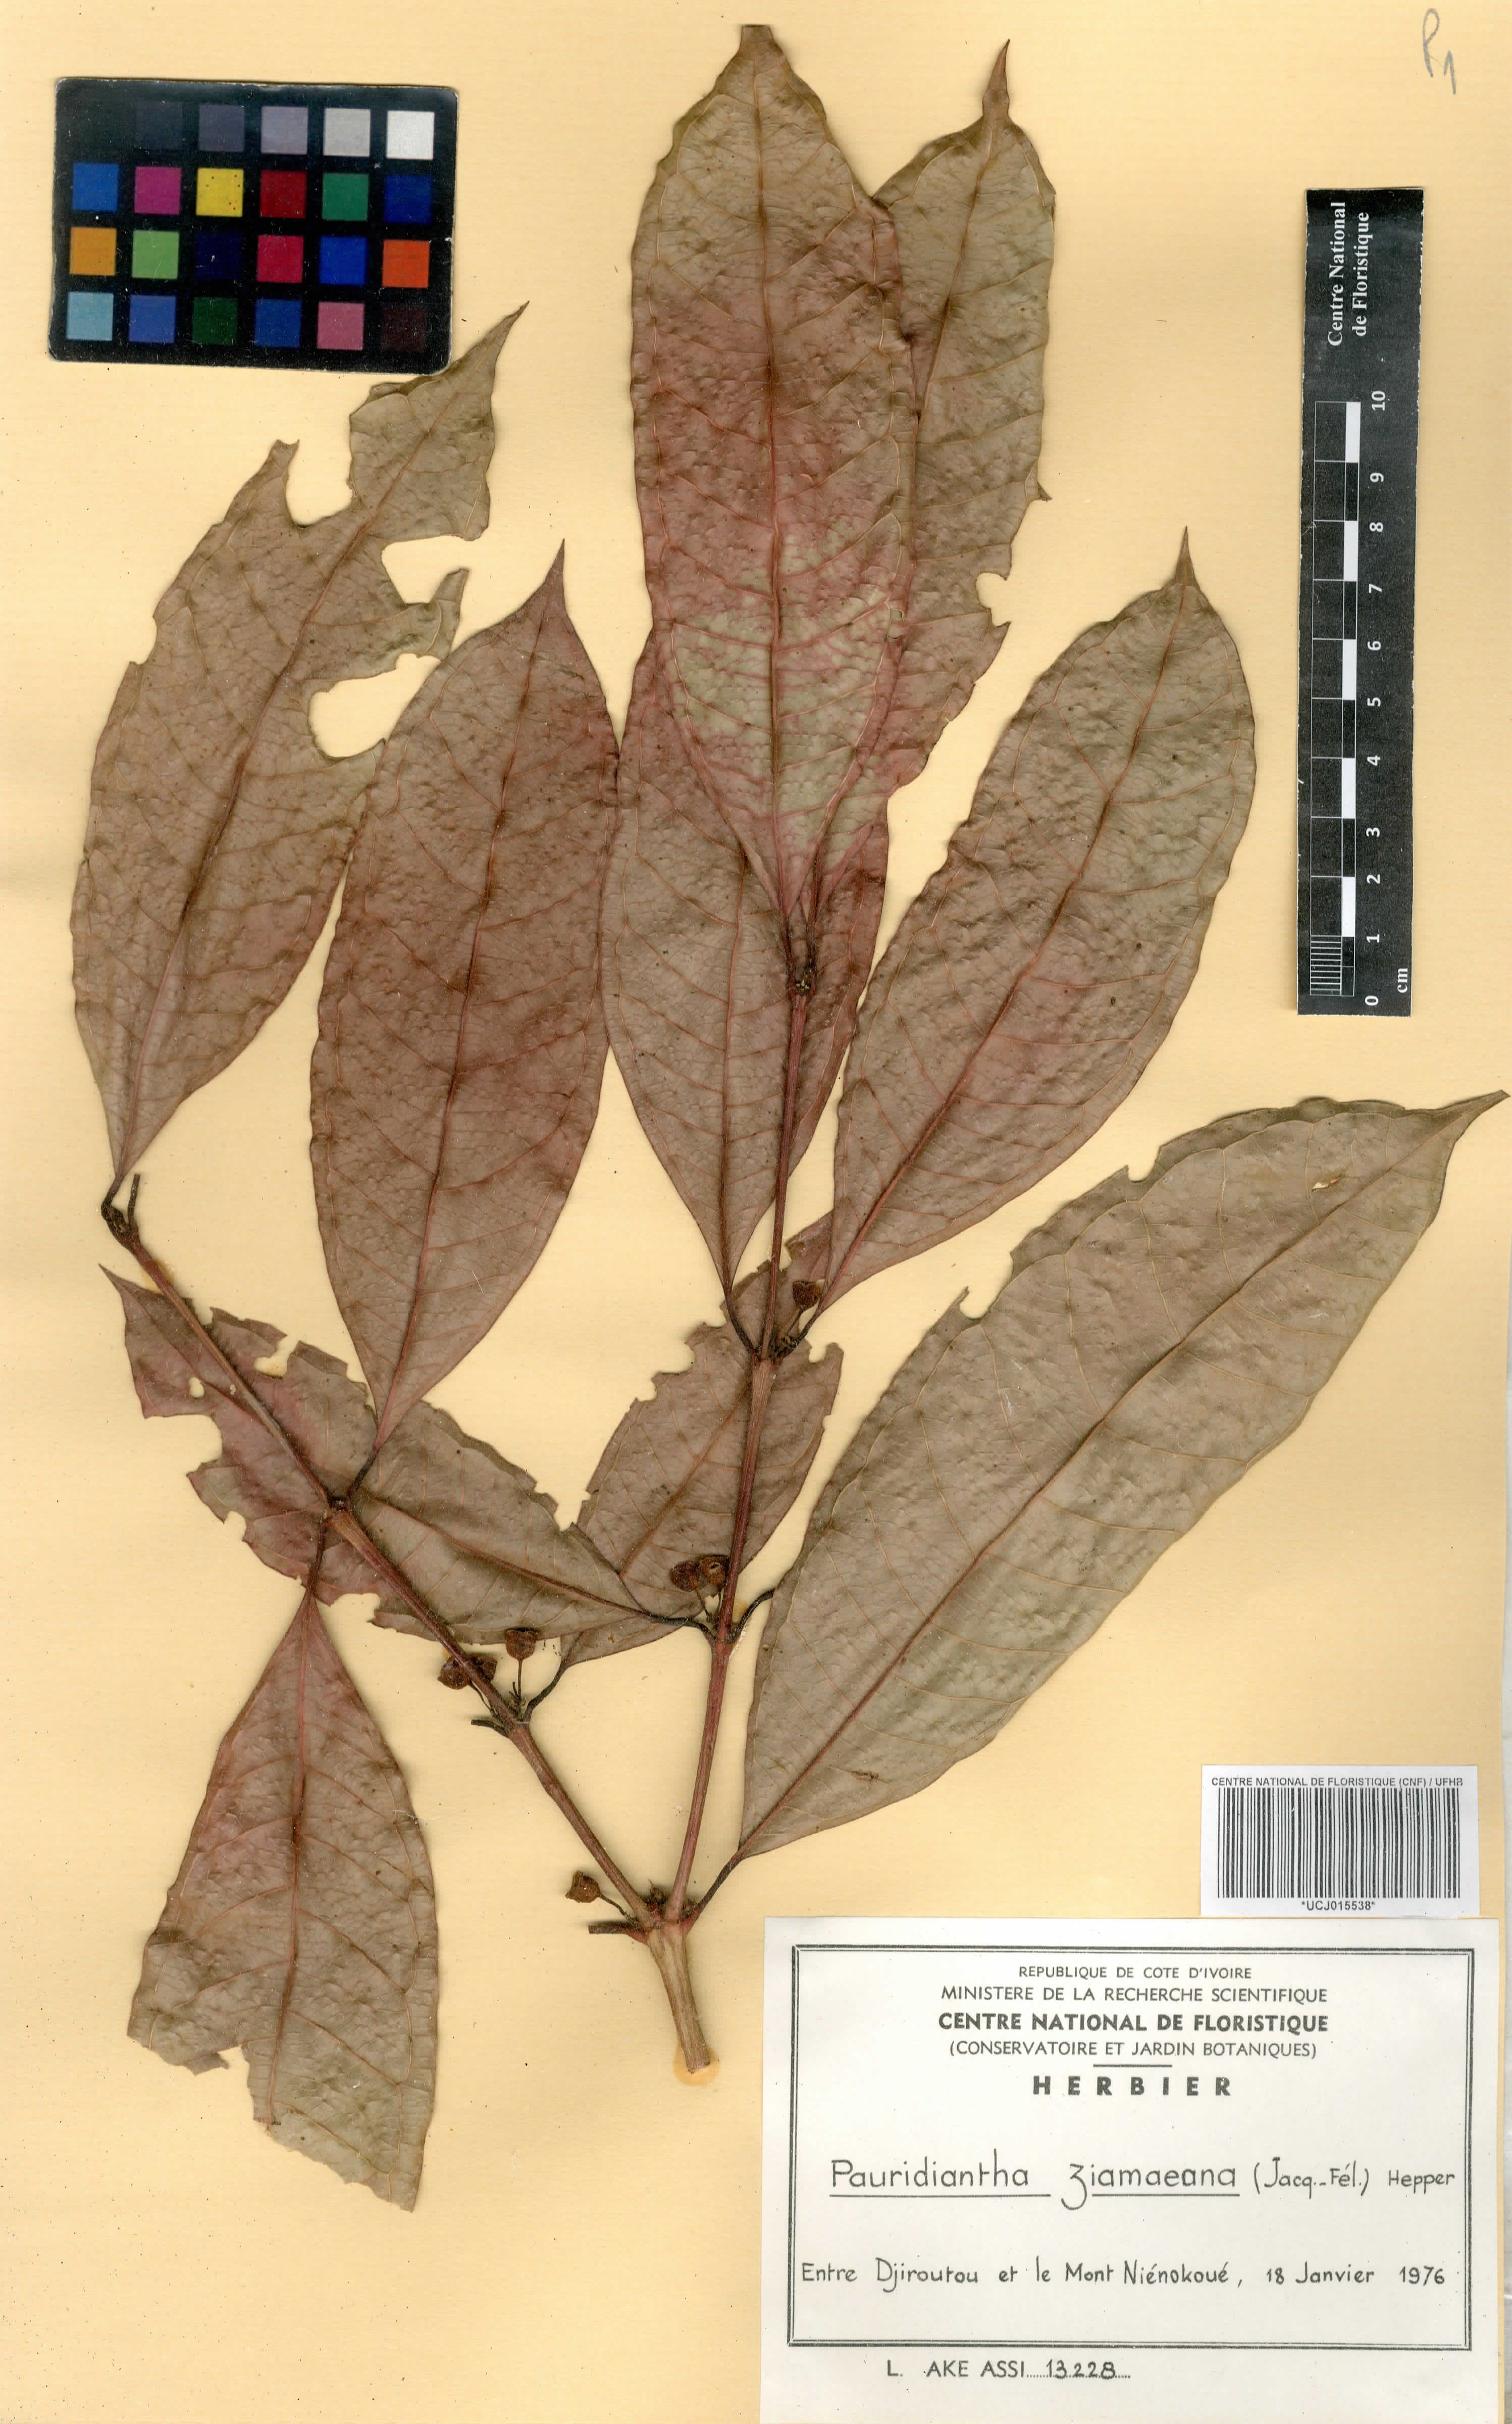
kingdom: Plantae
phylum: Tracheophyta
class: Magnoliopsida
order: Gentianales
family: Rubiaceae
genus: Pauridiantha
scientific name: Pauridiantha ziamaeana
